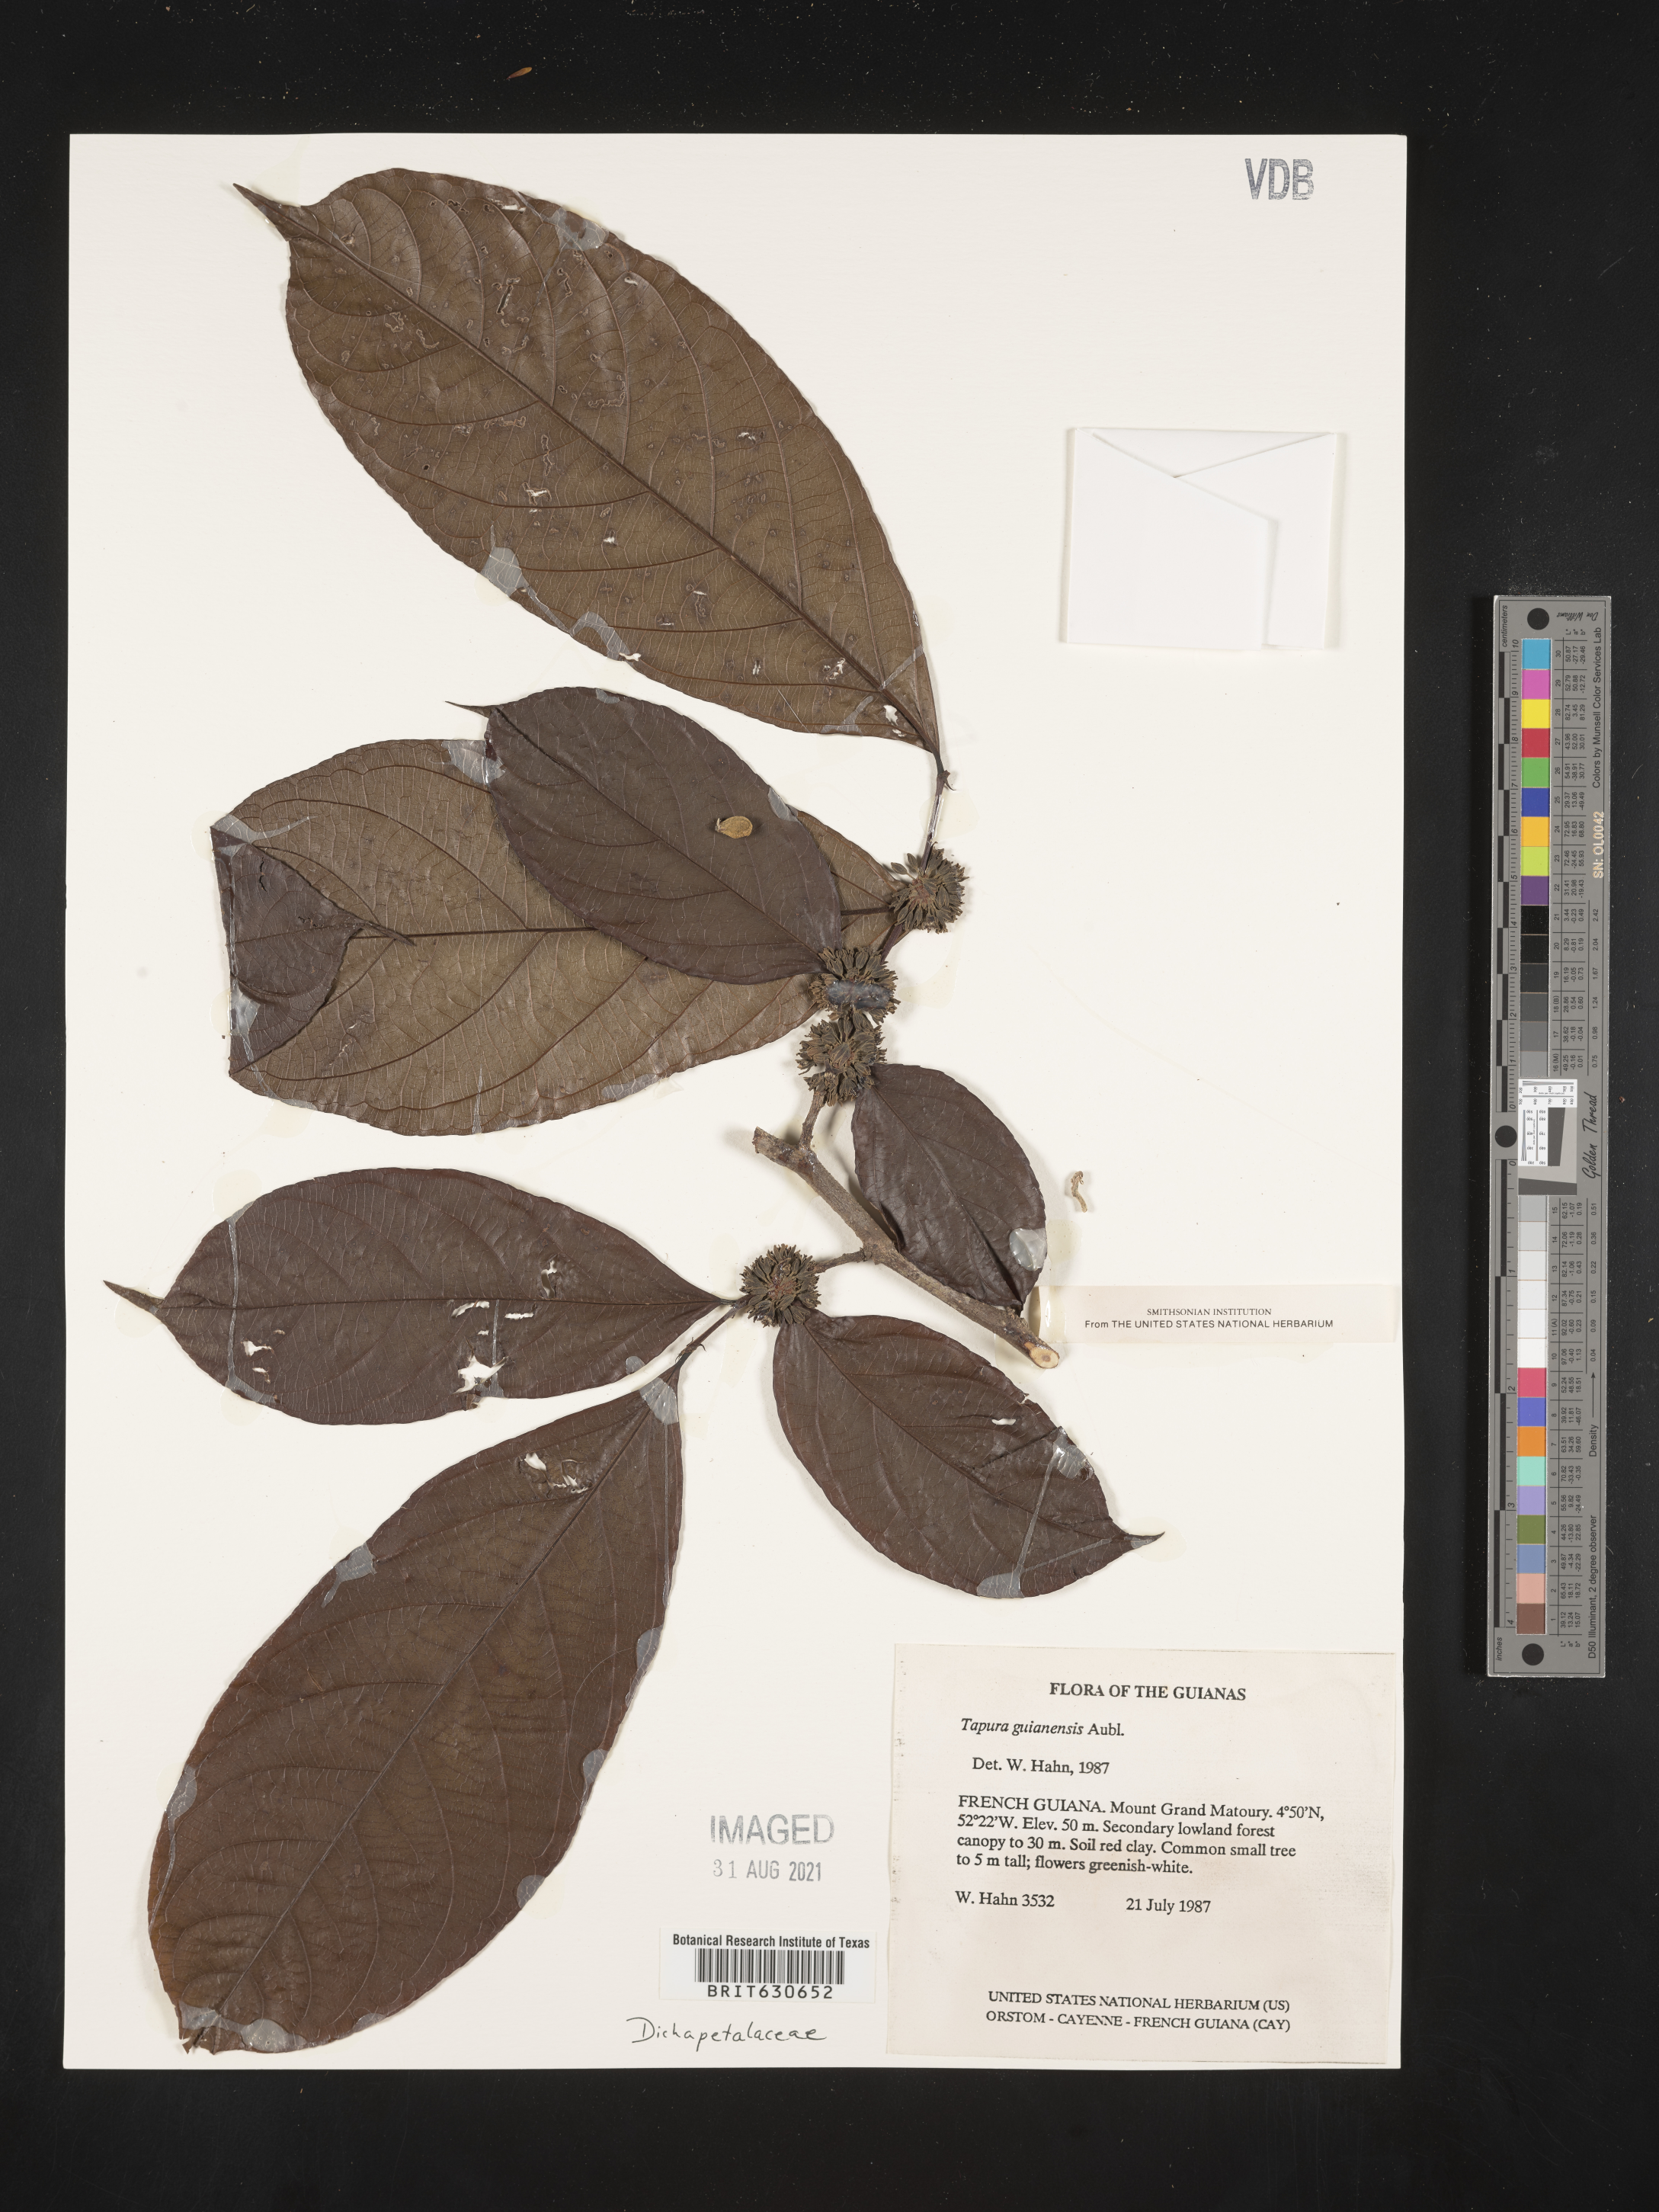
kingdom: Plantae
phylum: Tracheophyta
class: Magnoliopsida
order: Malpighiales
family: Dichapetalaceae
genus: Tapura
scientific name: Tapura
